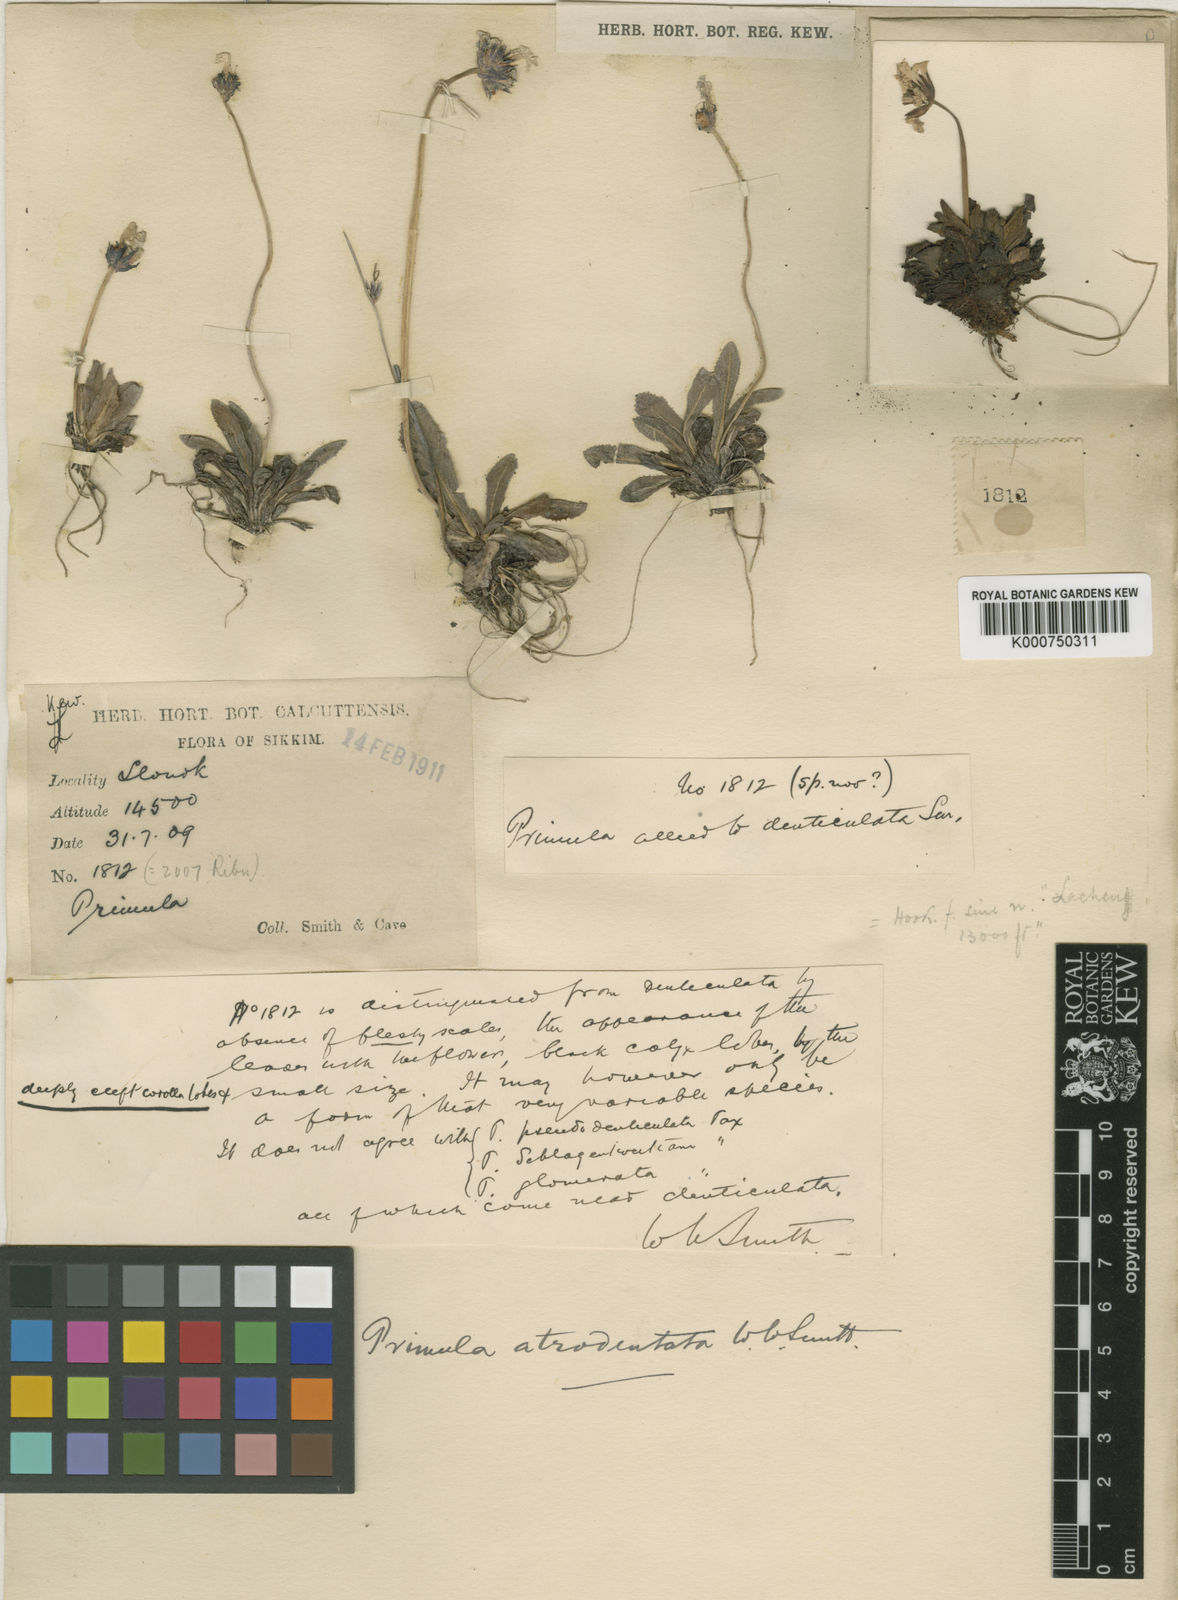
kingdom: Plantae
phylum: Tracheophyta
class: Magnoliopsida
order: Ericales
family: Primulaceae
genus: Primula
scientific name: Primula atrodentata
